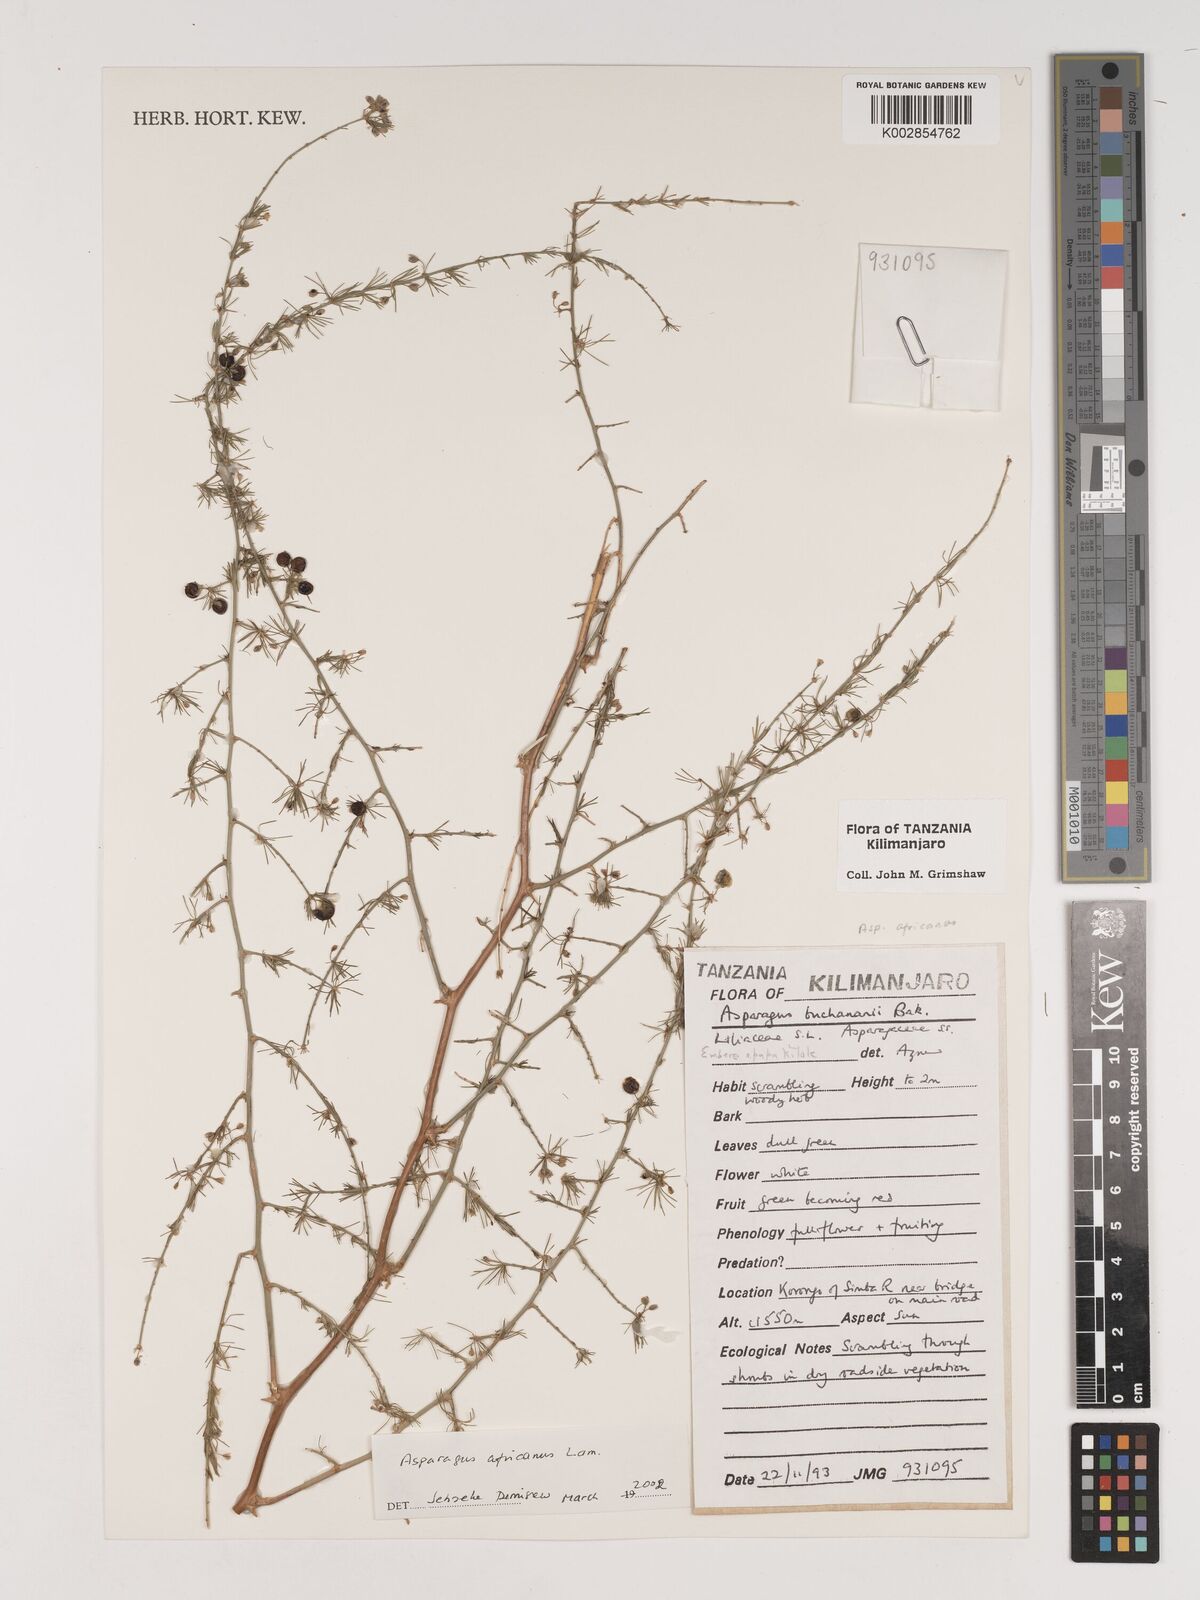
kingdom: Plantae
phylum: Tracheophyta
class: Liliopsida
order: Asparagales
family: Asparagaceae
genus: Asparagus
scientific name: Asparagus africanus
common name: Asparagus-fern
